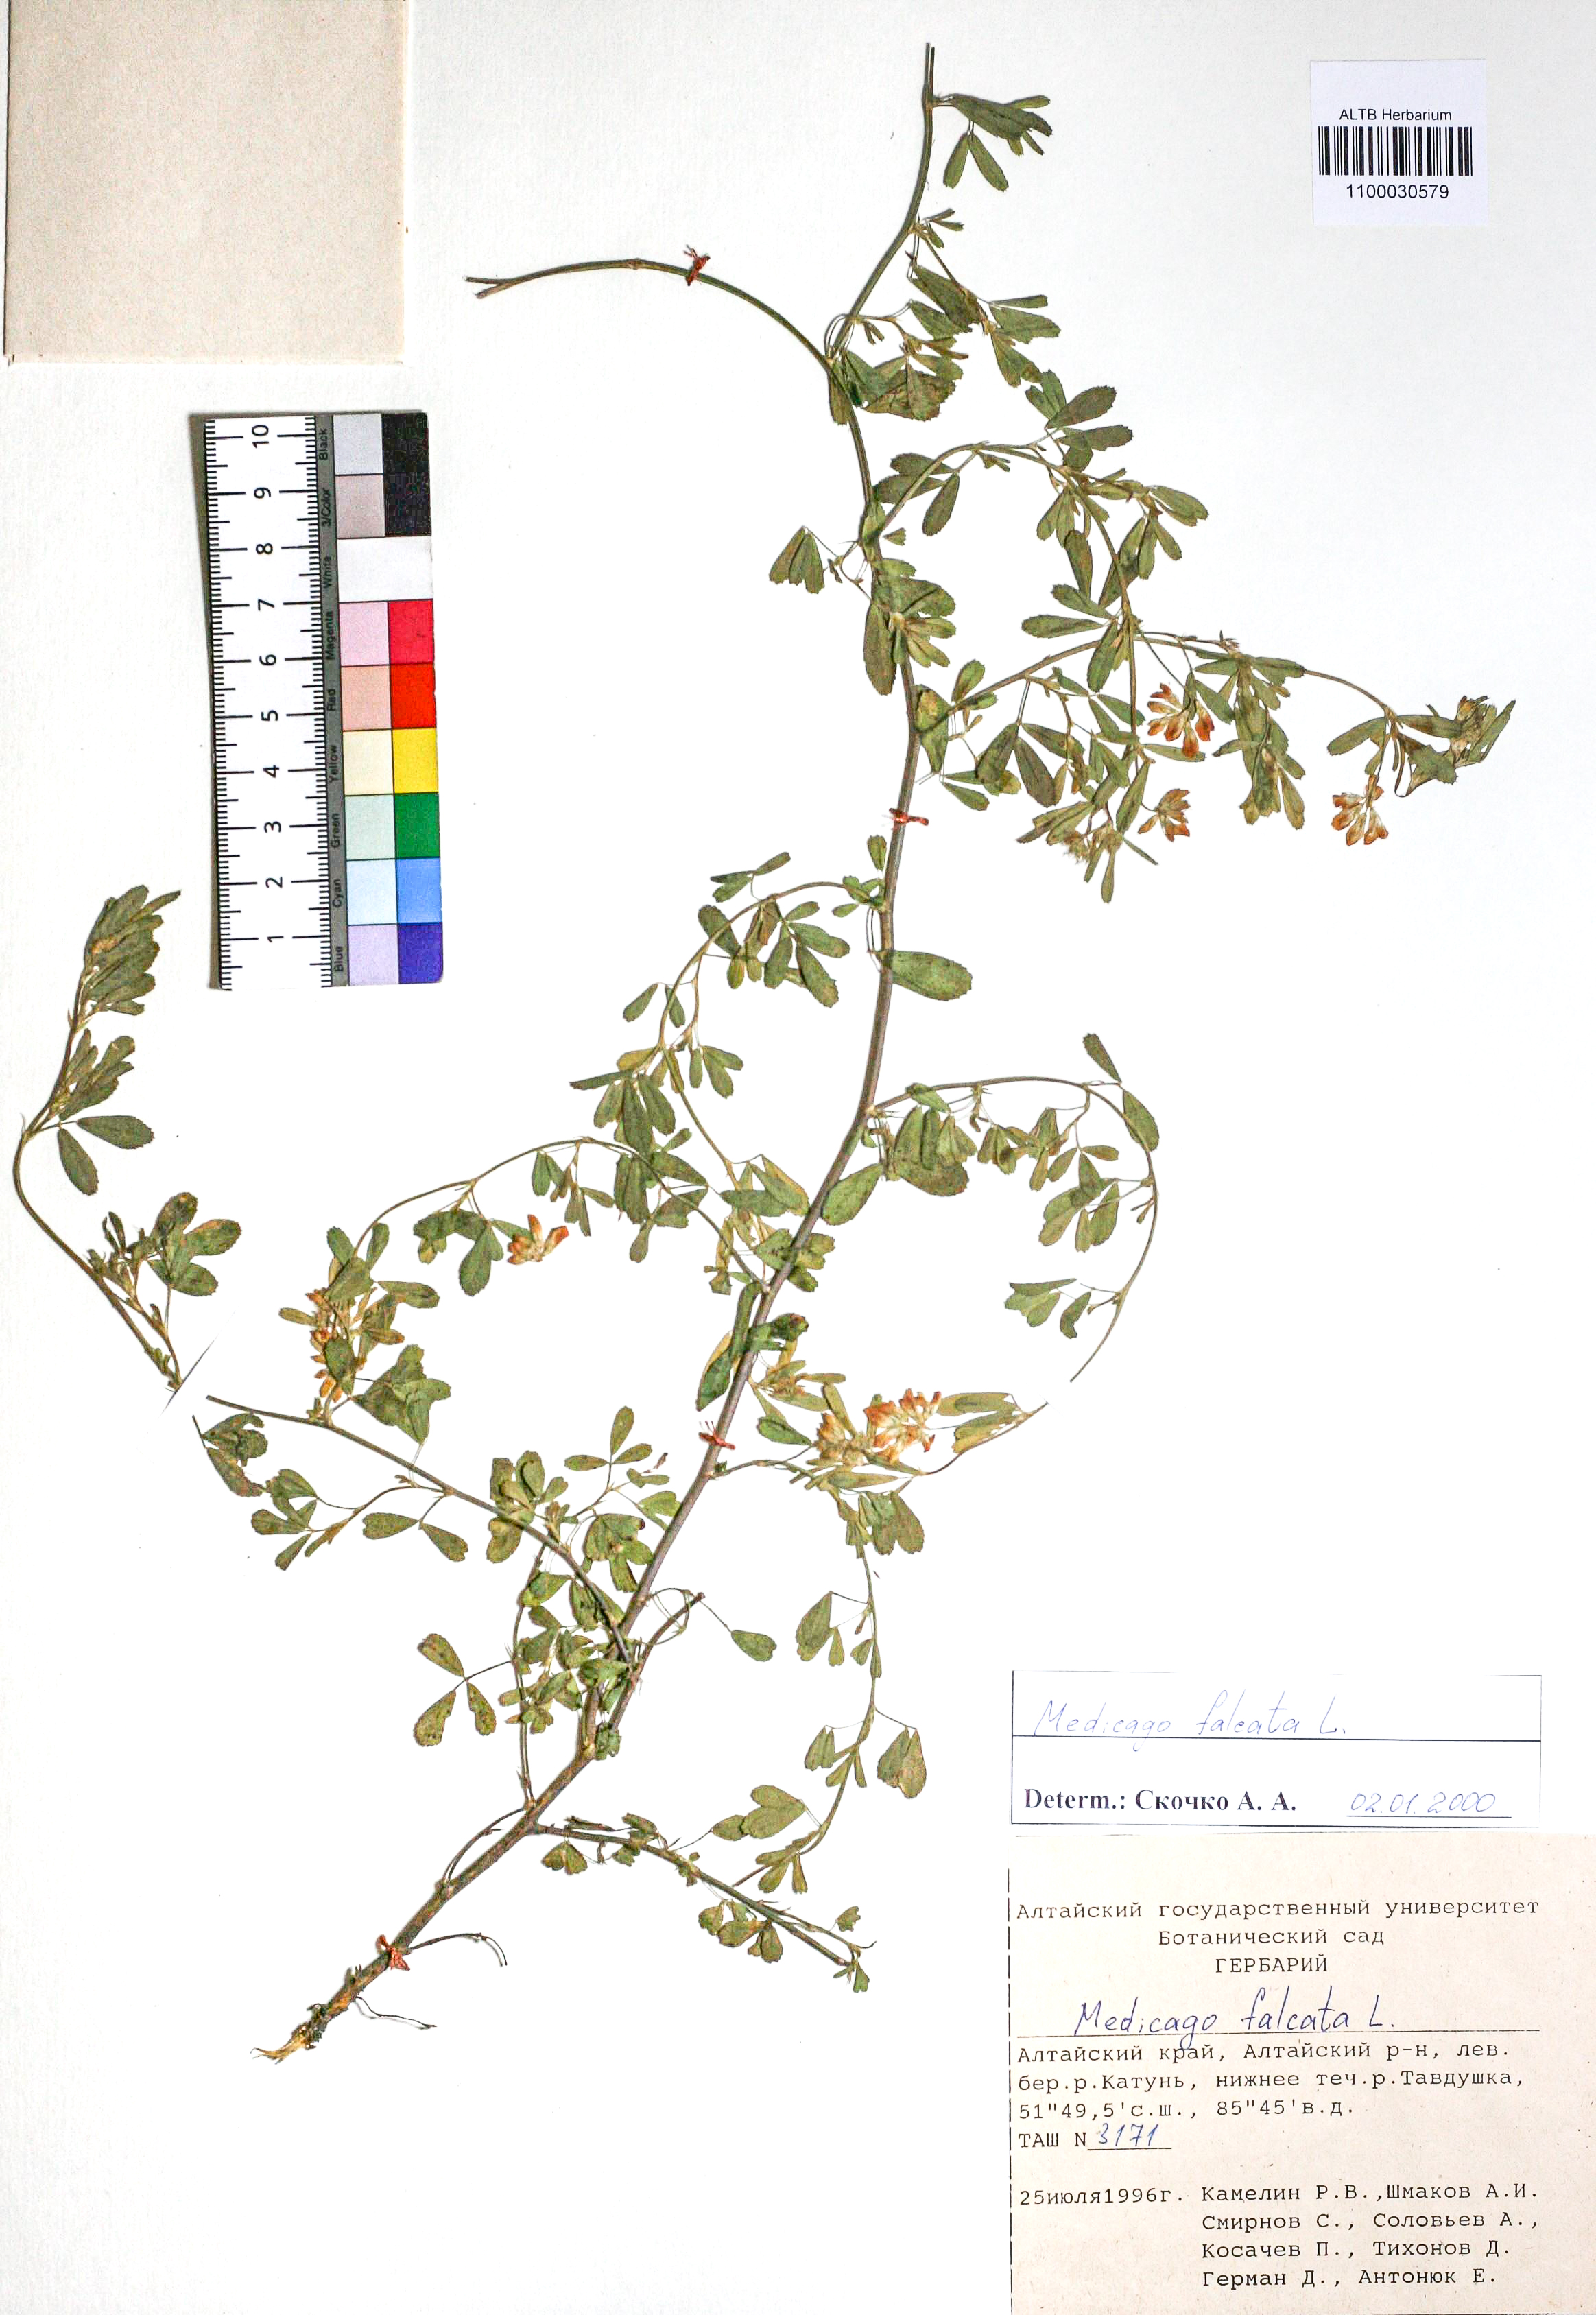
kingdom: Plantae
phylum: Tracheophyta
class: Magnoliopsida
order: Fabales
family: Fabaceae
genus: Medicago
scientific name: Medicago falcata
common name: Sickle medick
